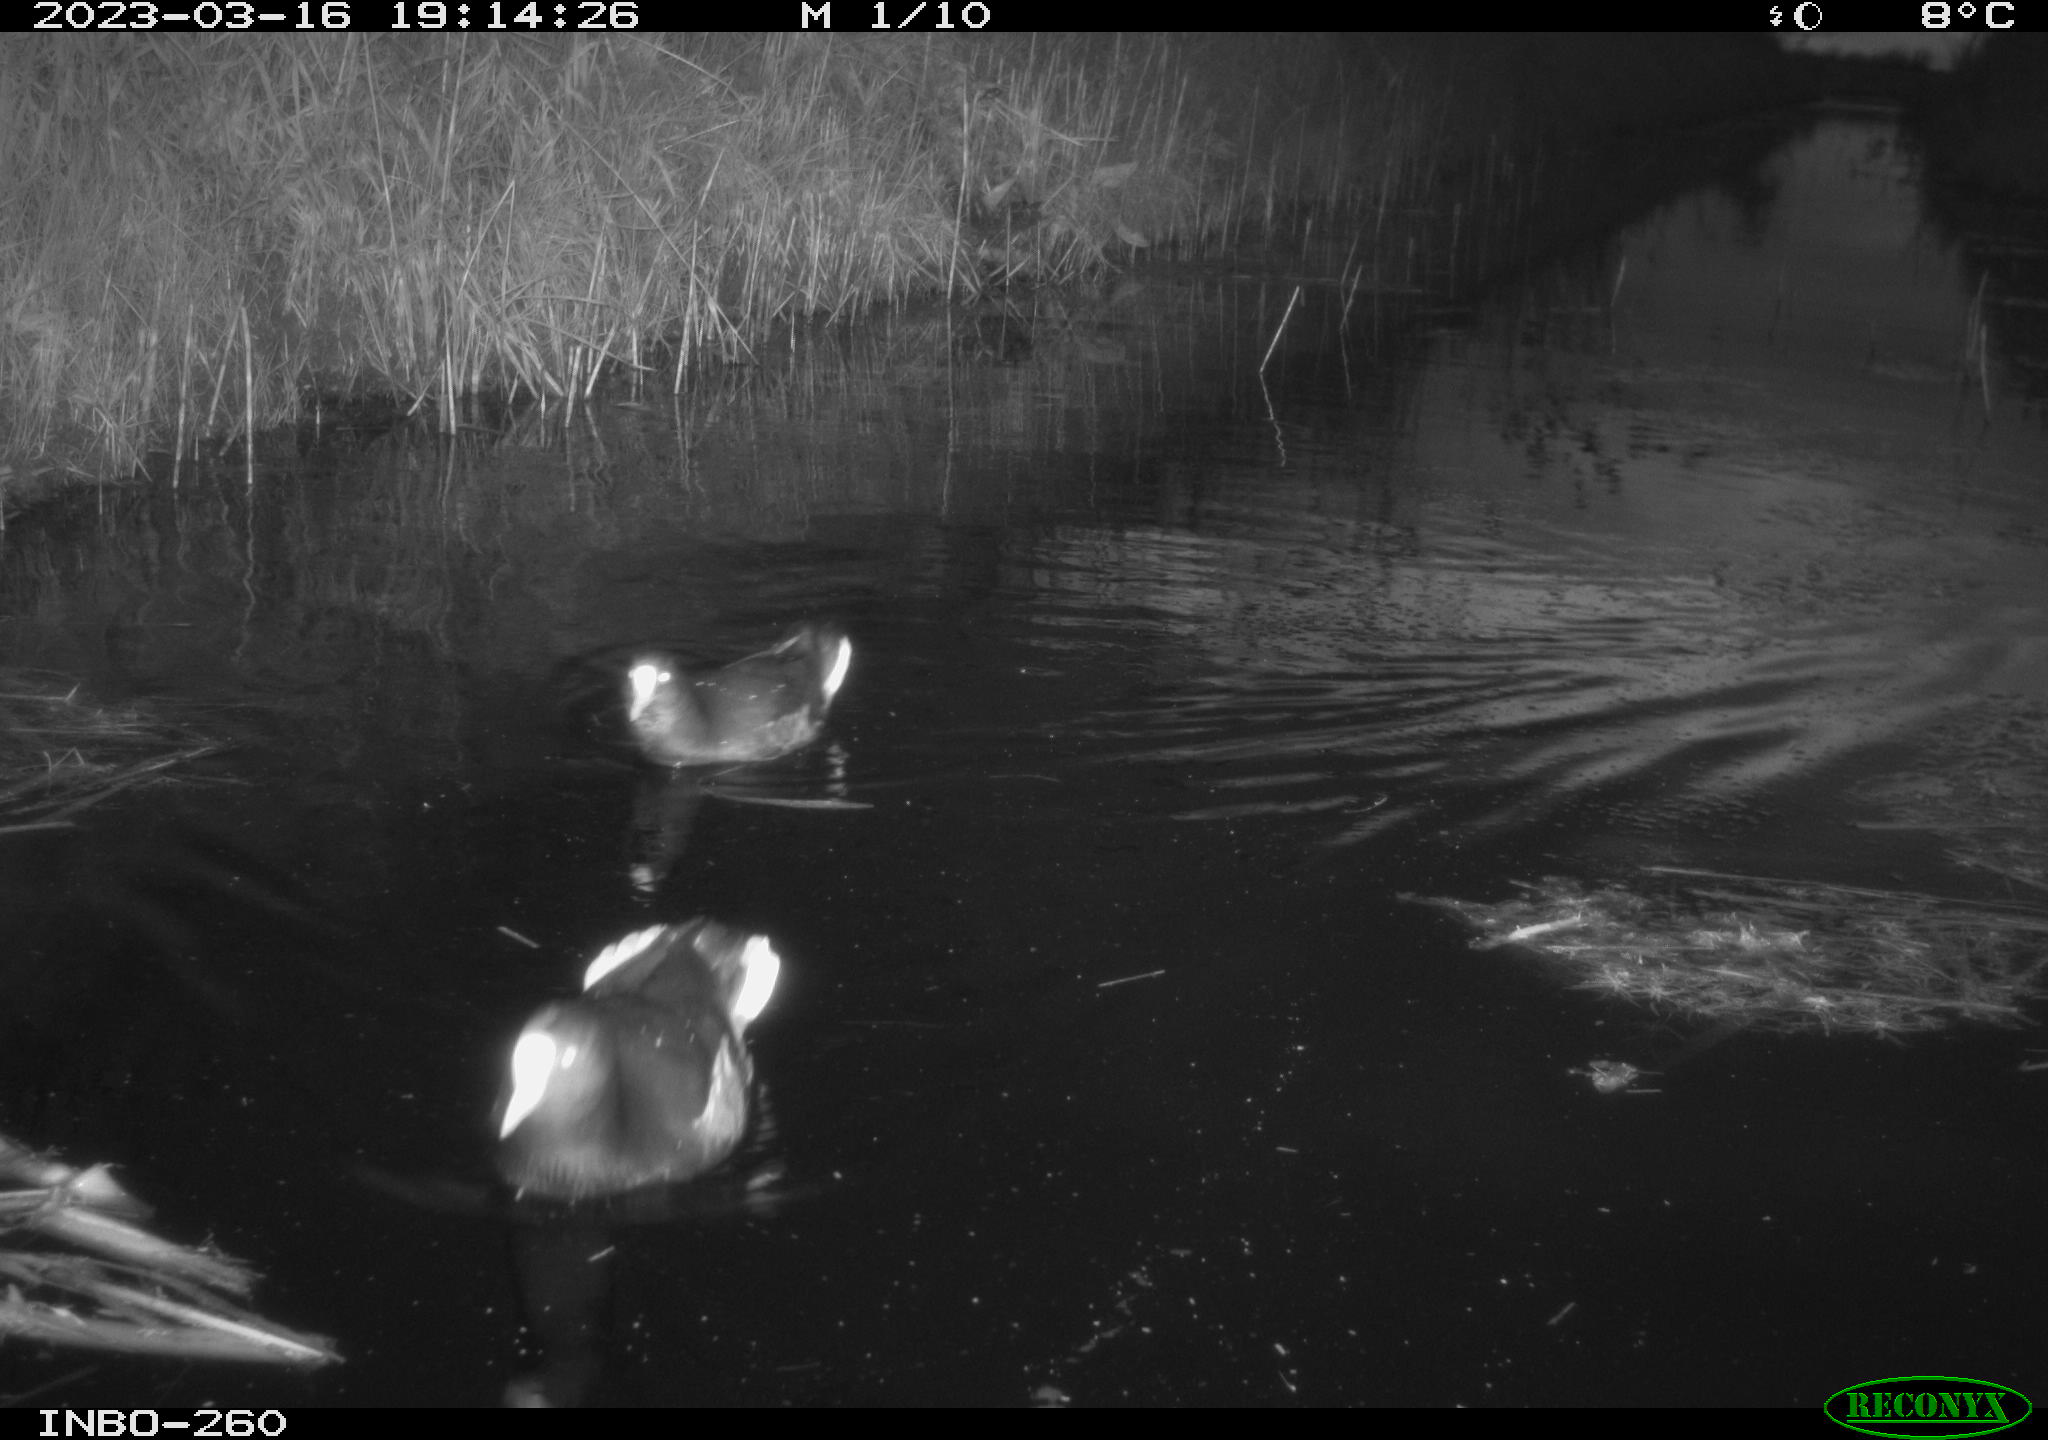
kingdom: Animalia
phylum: Chordata
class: Aves
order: Gruiformes
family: Rallidae
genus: Fulica
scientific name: Fulica atra
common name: Eurasian coot
